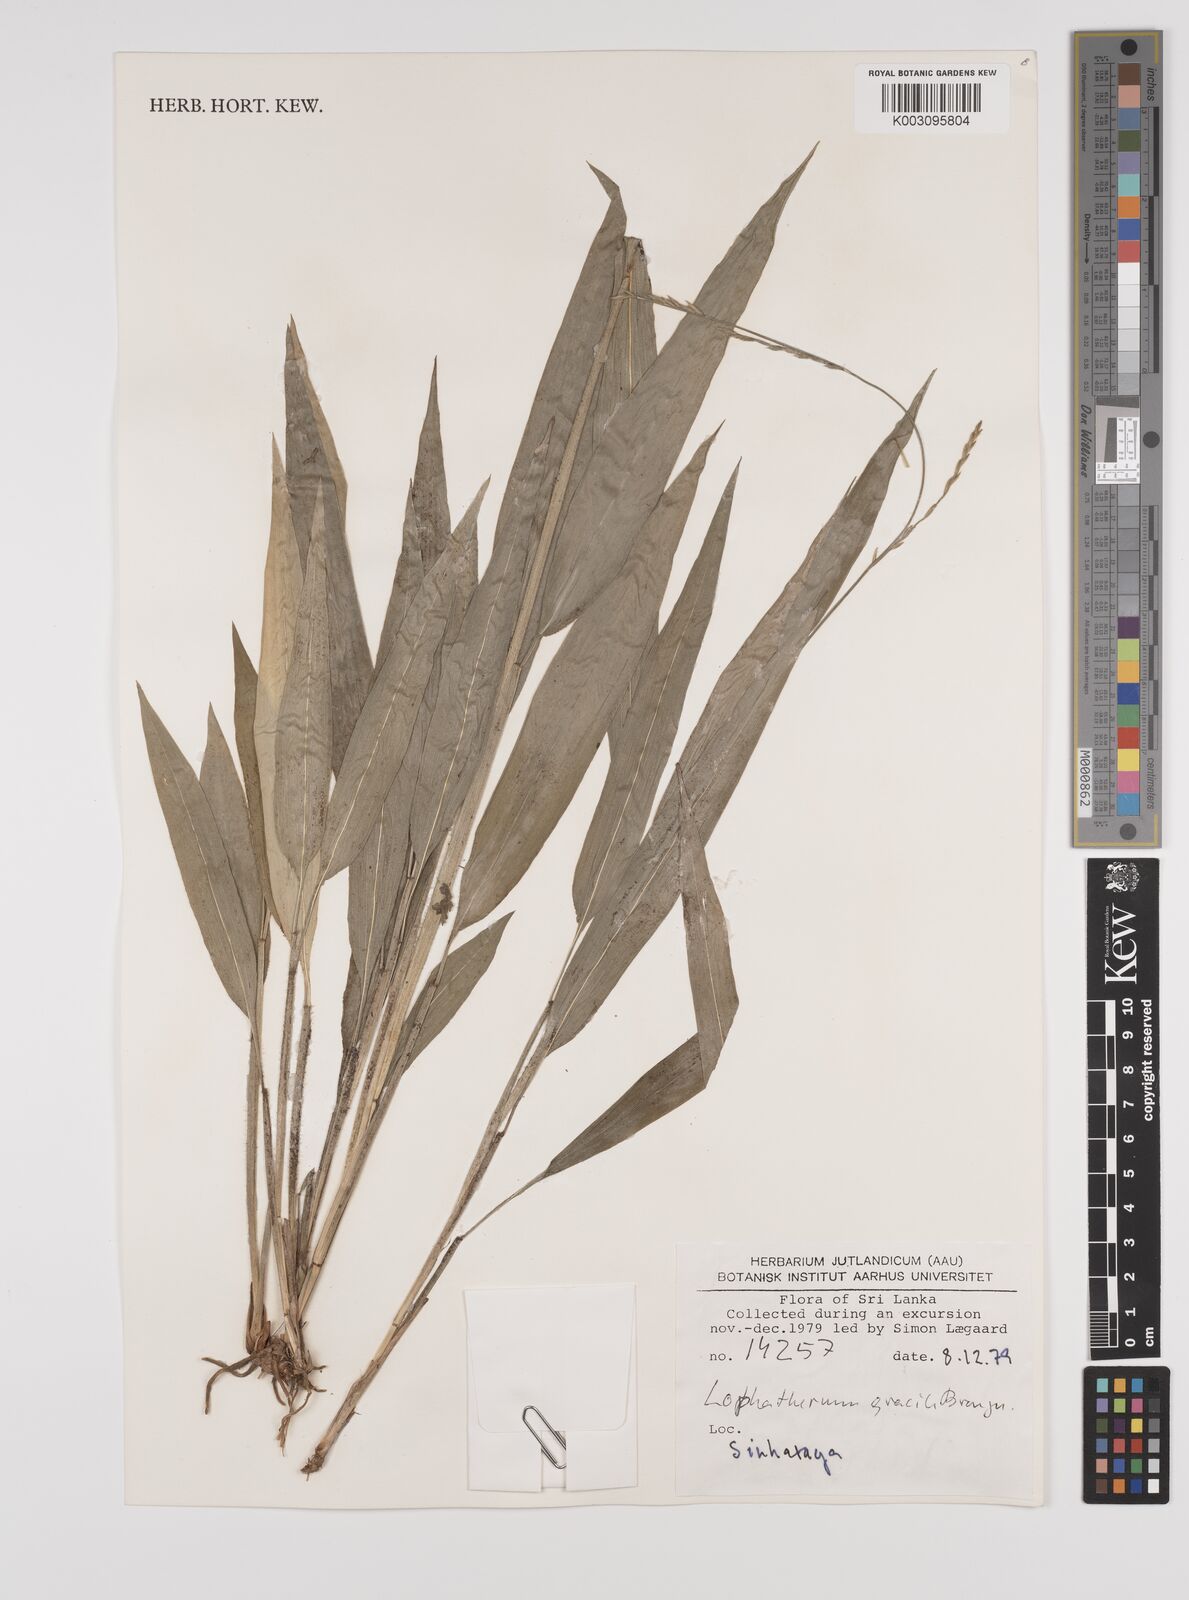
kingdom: Plantae
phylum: Tracheophyta
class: Liliopsida
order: Poales
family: Poaceae
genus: Lophatherum
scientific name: Lophatherum gracile
